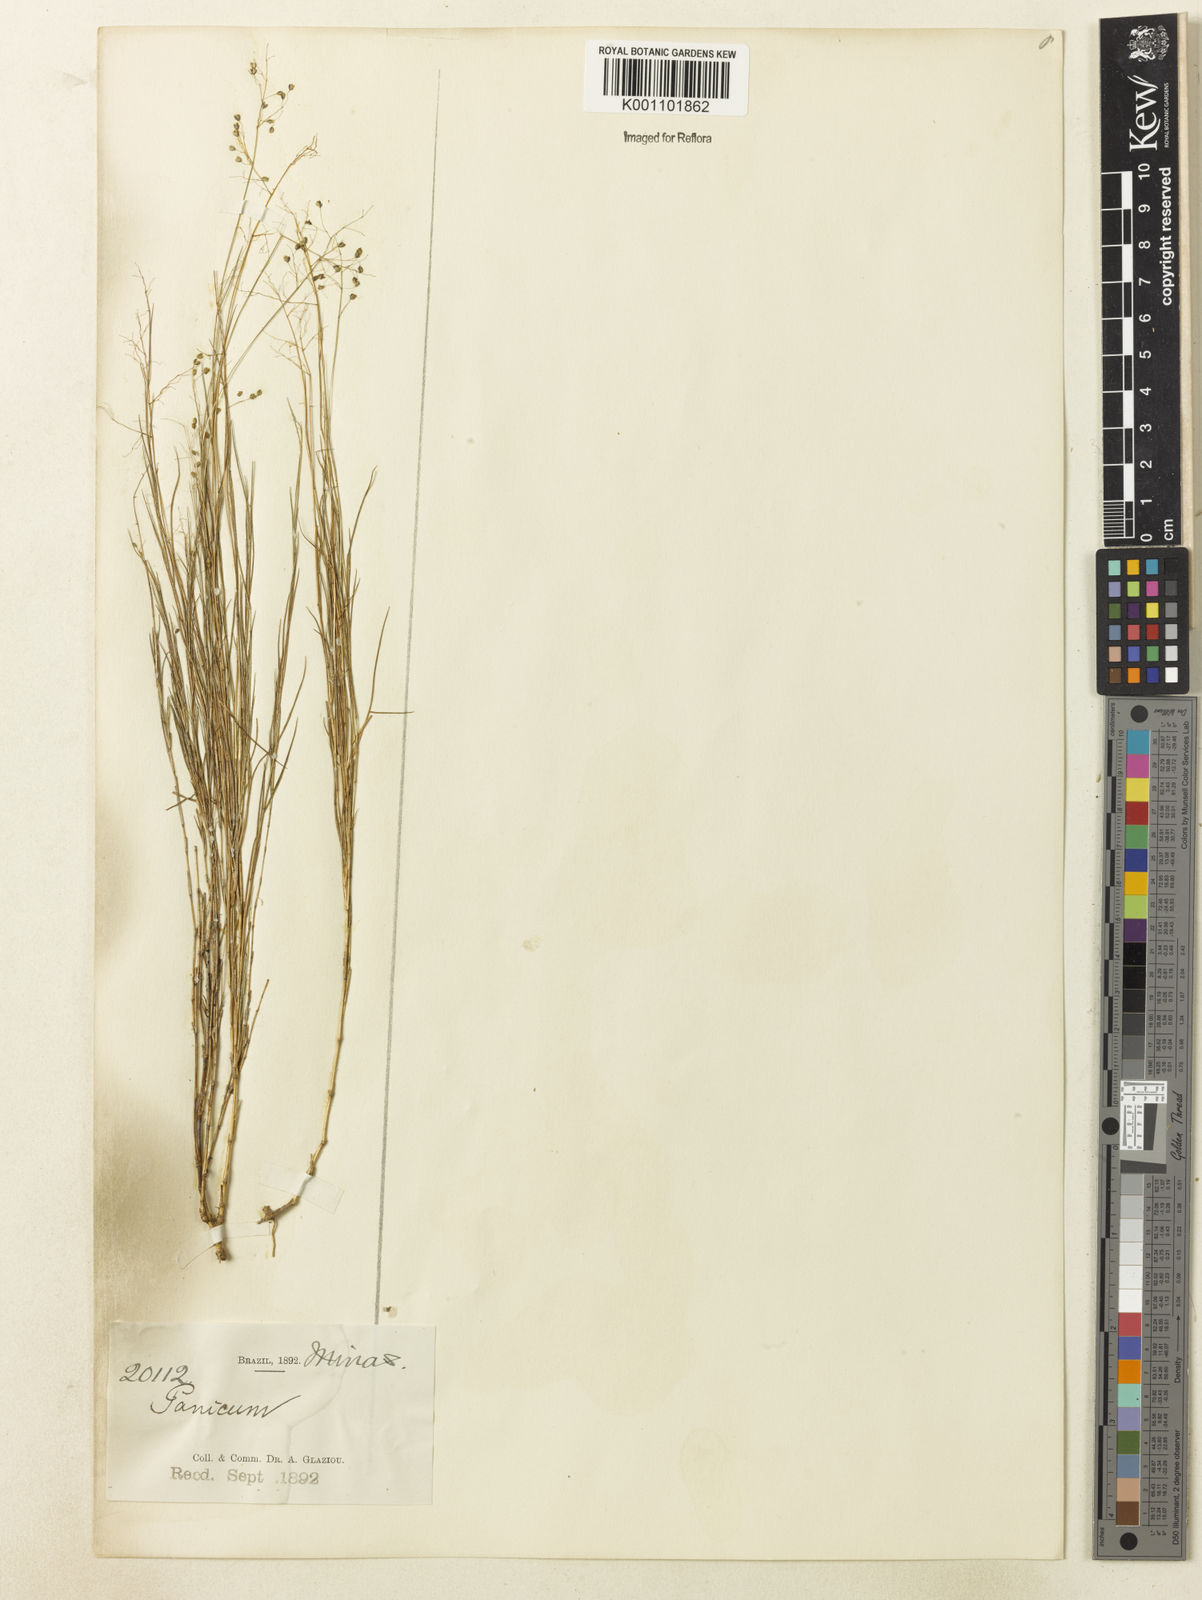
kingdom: Plantae
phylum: Tracheophyta
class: Liliopsida
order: Poales
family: Poaceae
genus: Trichanthecium
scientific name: Trichanthecium distichophyllum
